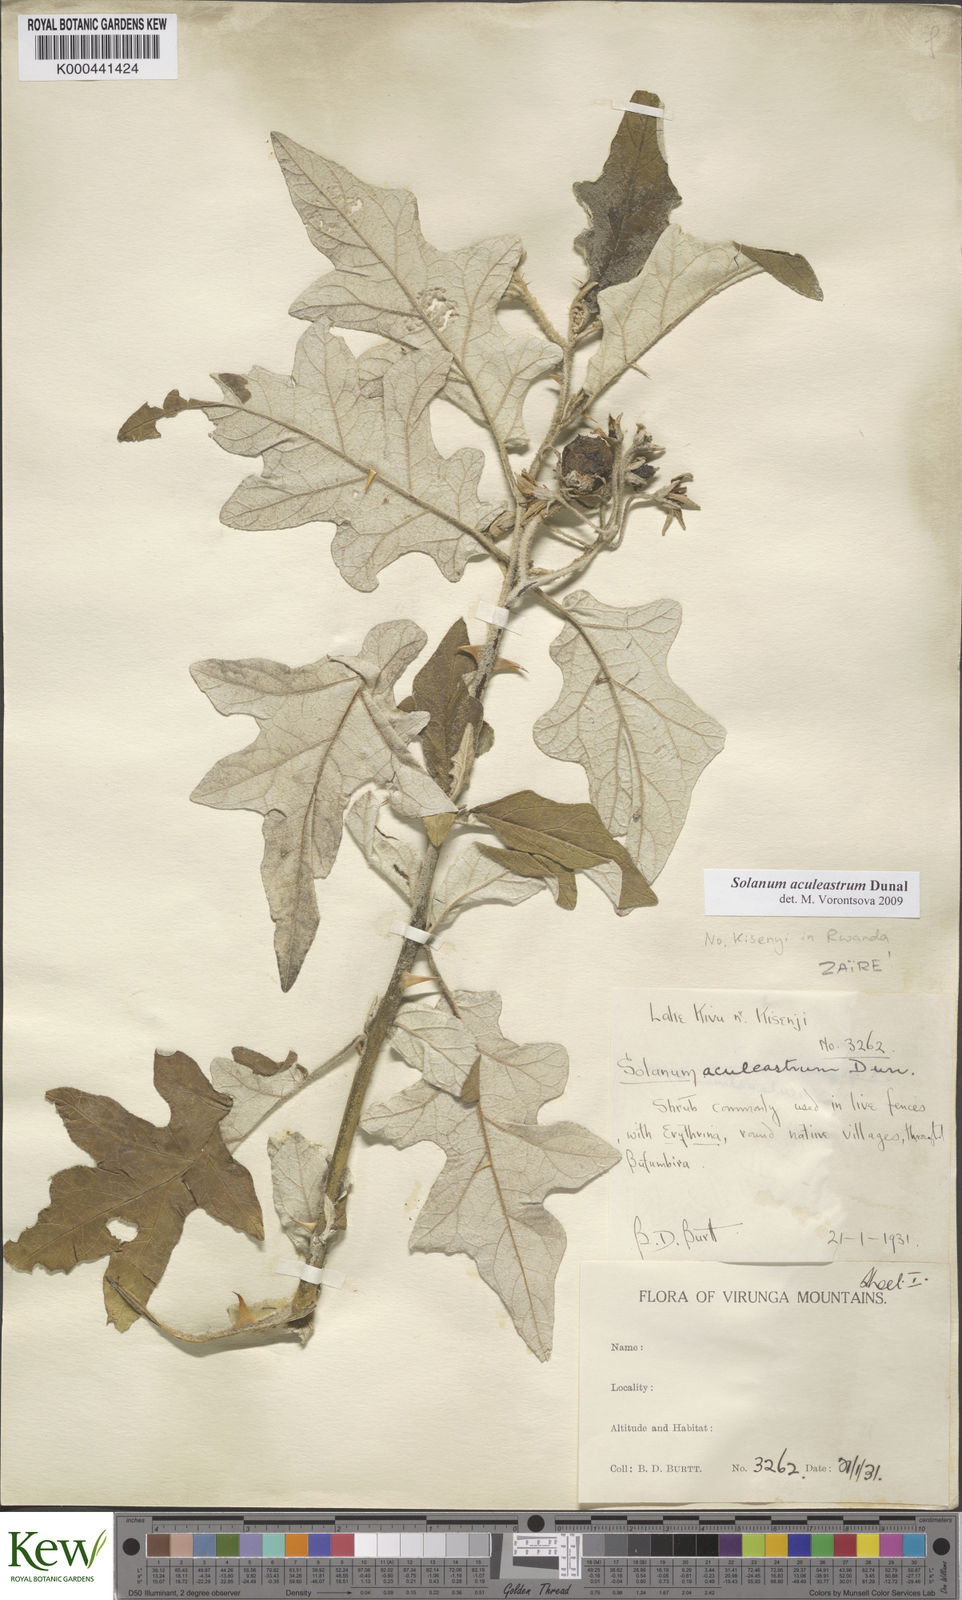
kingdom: Plantae
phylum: Tracheophyta
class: Magnoliopsida
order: Solanales
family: Solanaceae
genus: Solanum
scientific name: Solanum aculeastrum
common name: Goat bitter-apple
